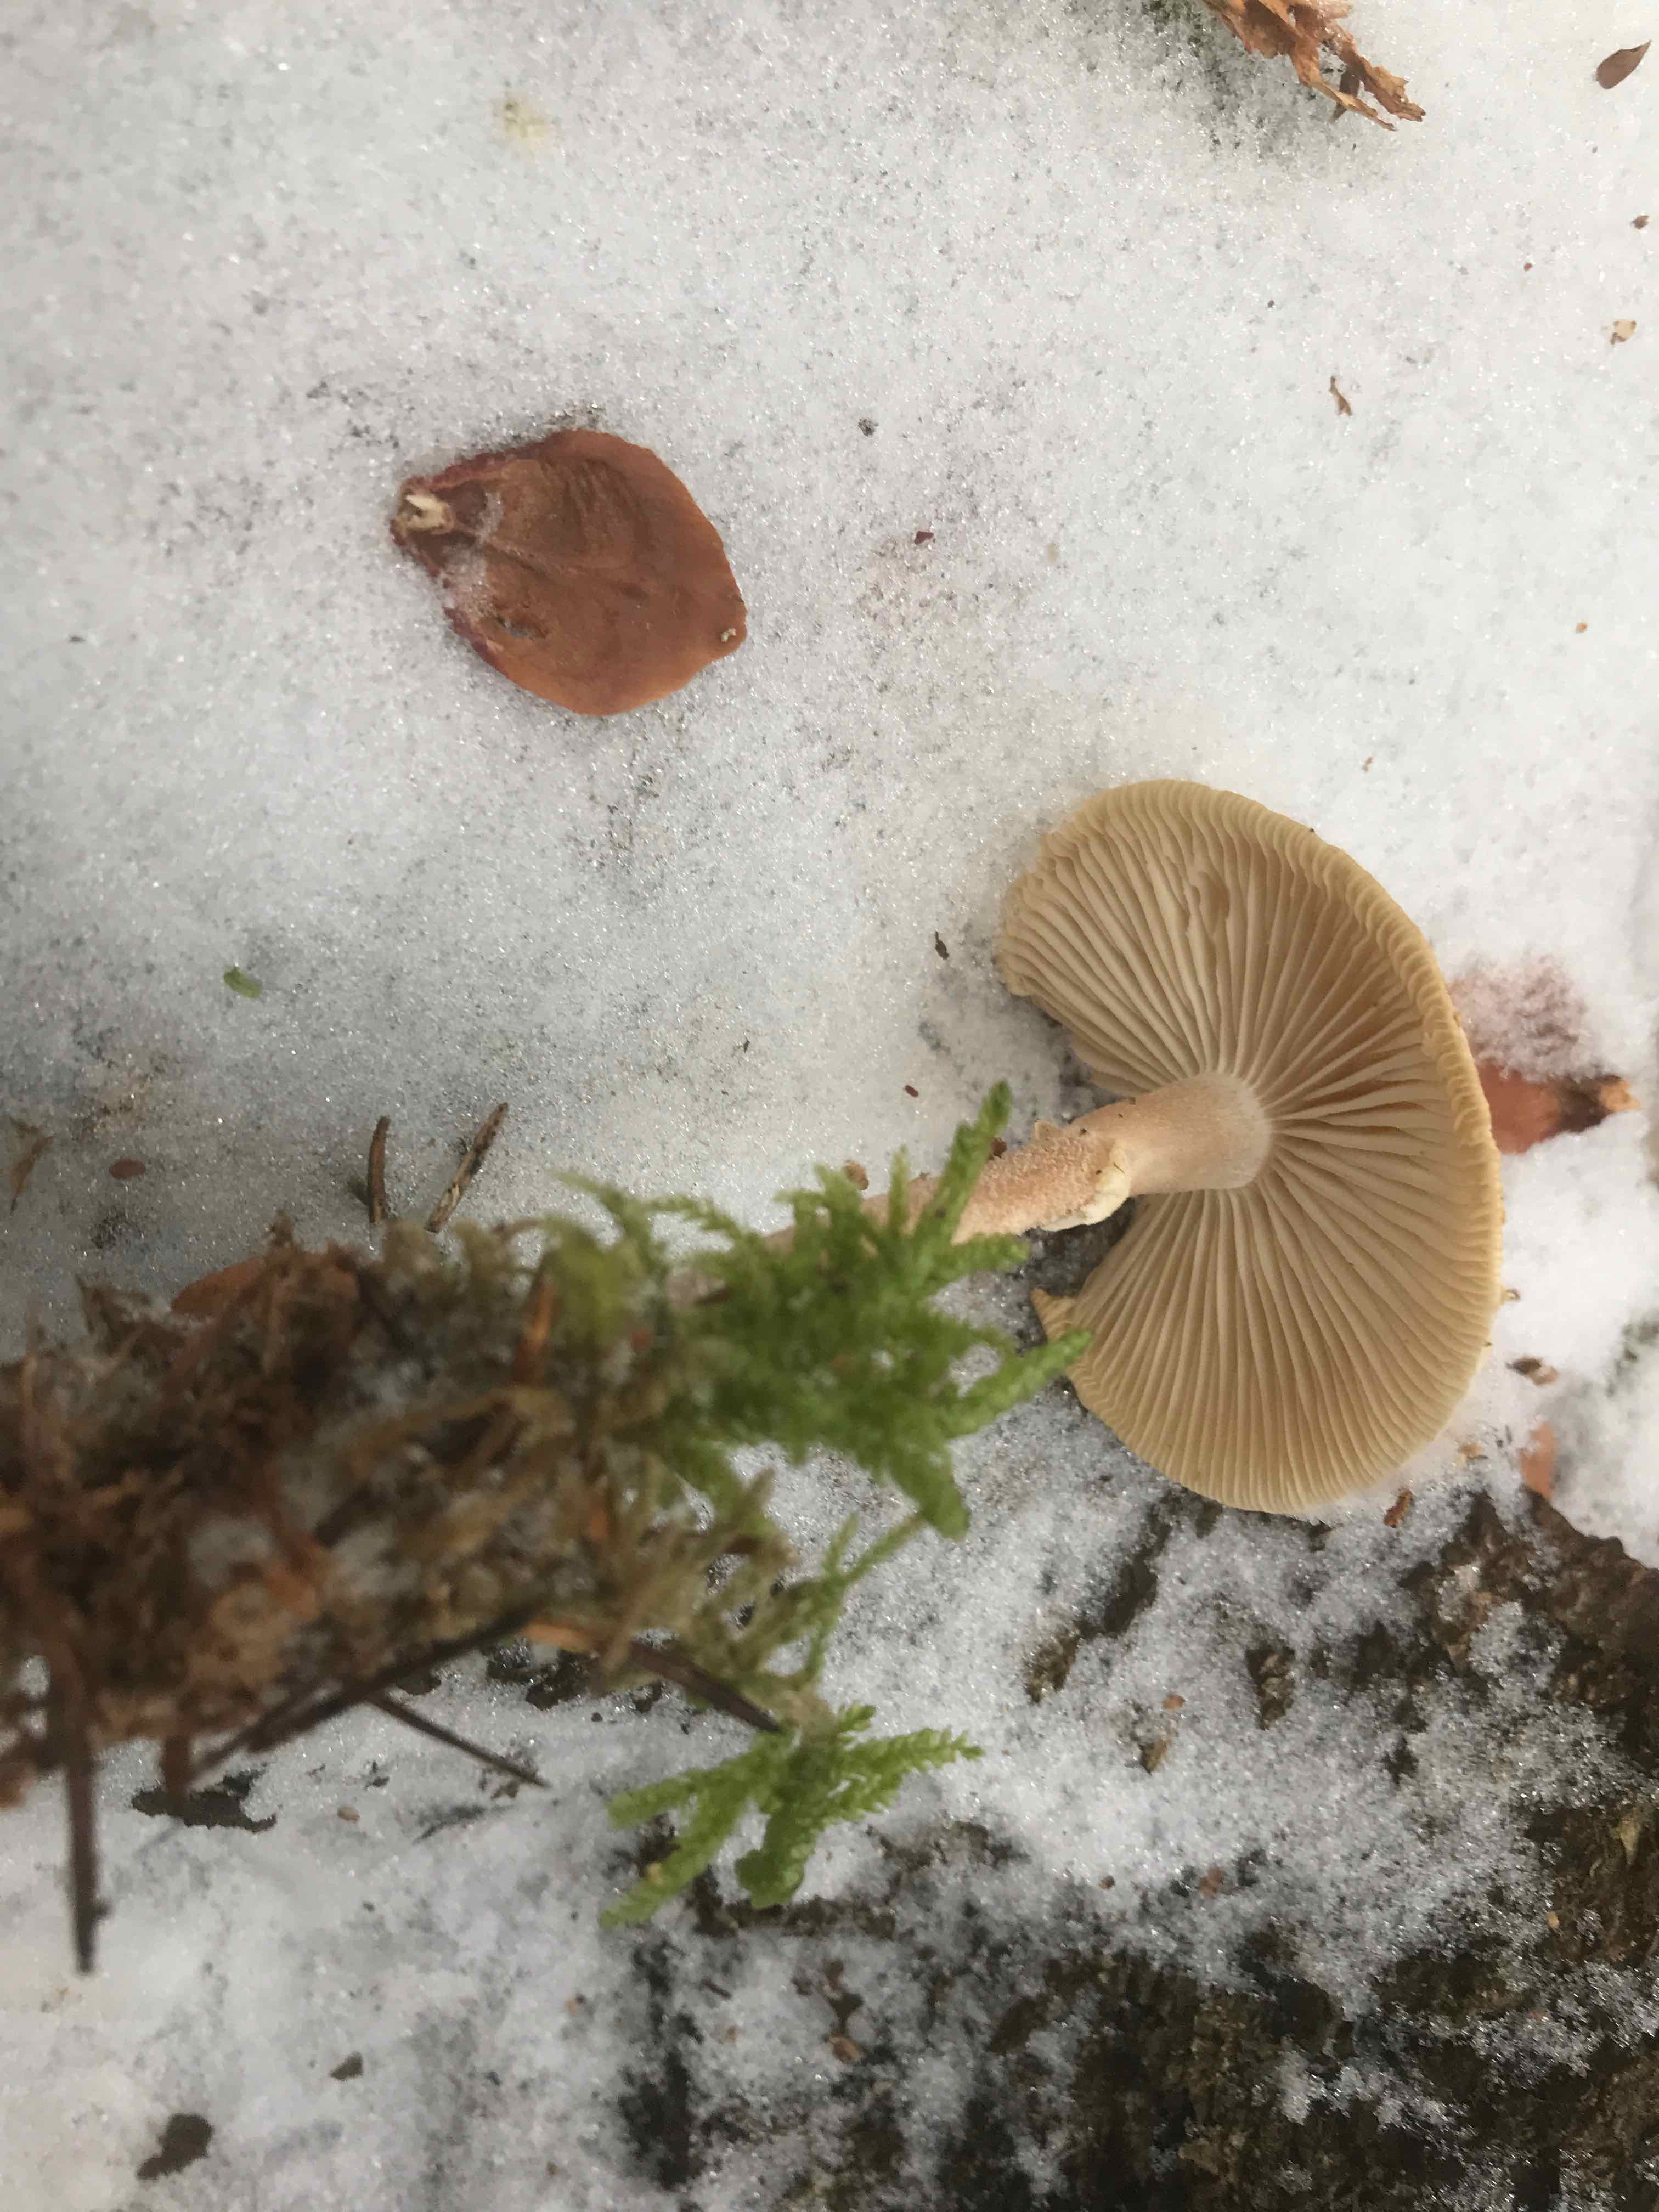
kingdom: Fungi
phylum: Basidiomycota
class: Agaricomycetes
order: Agaricales
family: Tricholomataceae
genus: Cystoderma
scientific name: Cystoderma carcharias
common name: rødgrå grynhat
